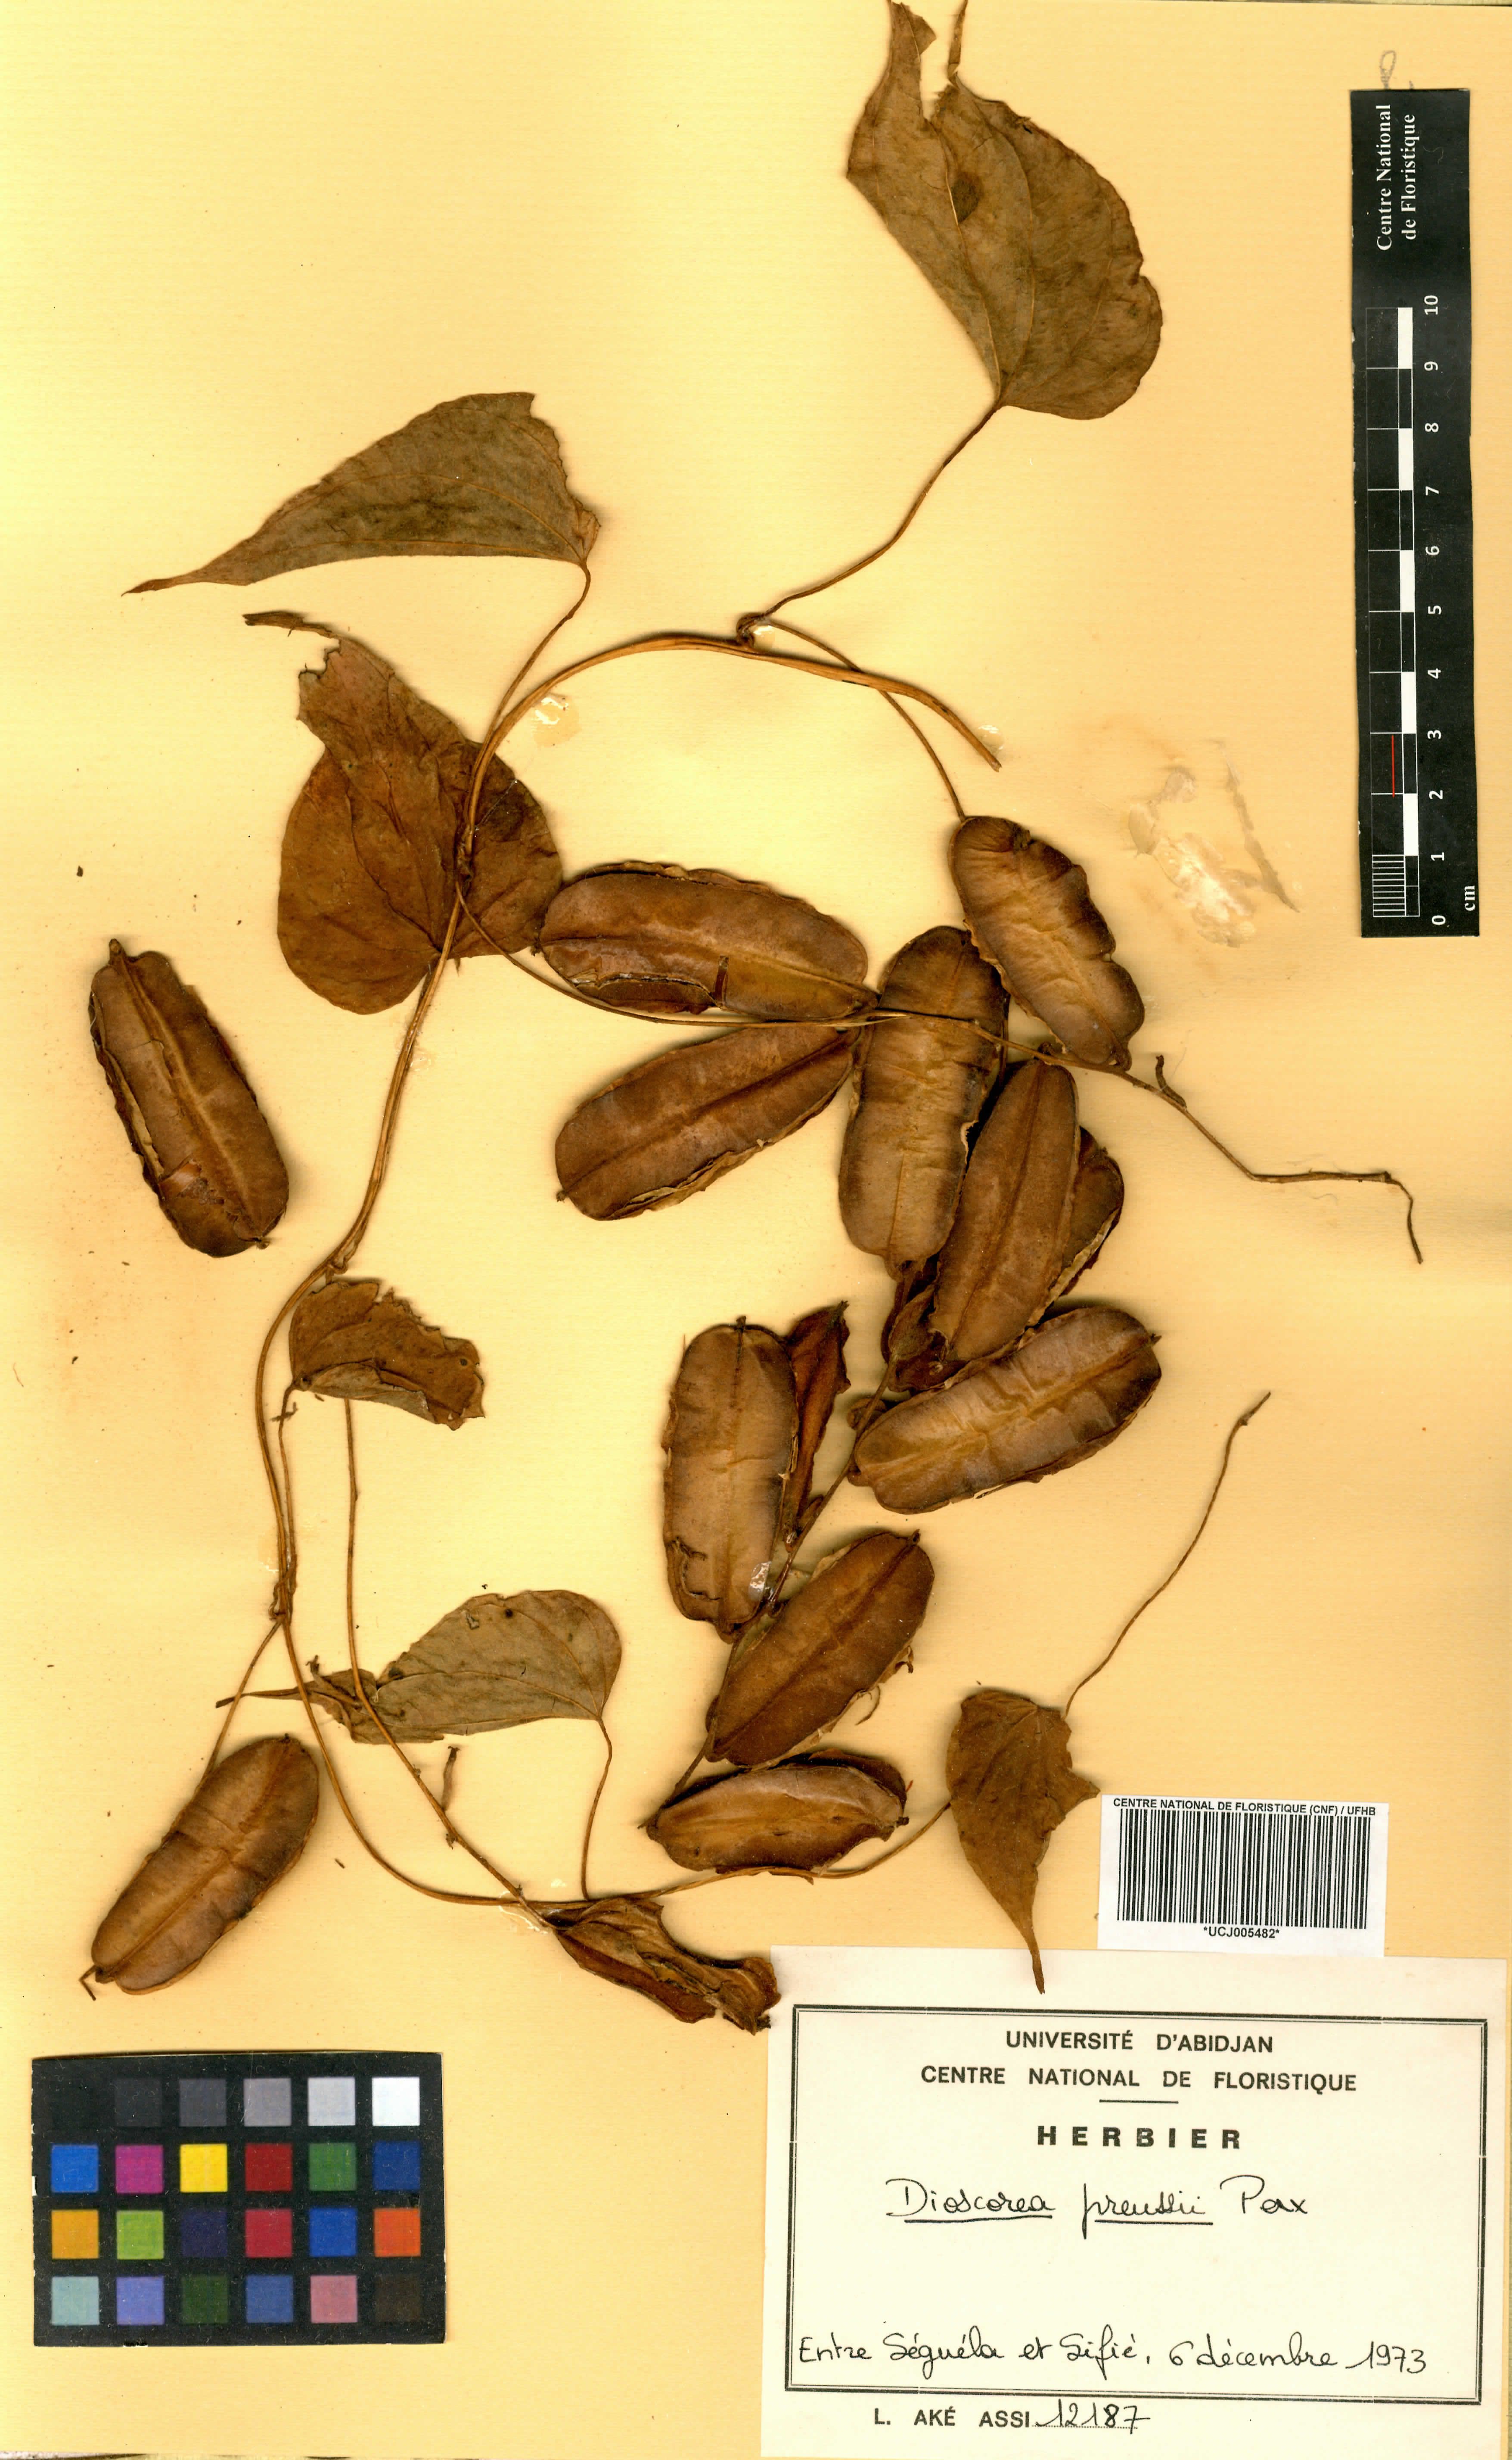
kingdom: Plantae
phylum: Tracheophyta
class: Liliopsida
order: Dioscoreales
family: Dioscoreaceae
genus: Dioscorea
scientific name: Dioscorea preussii
